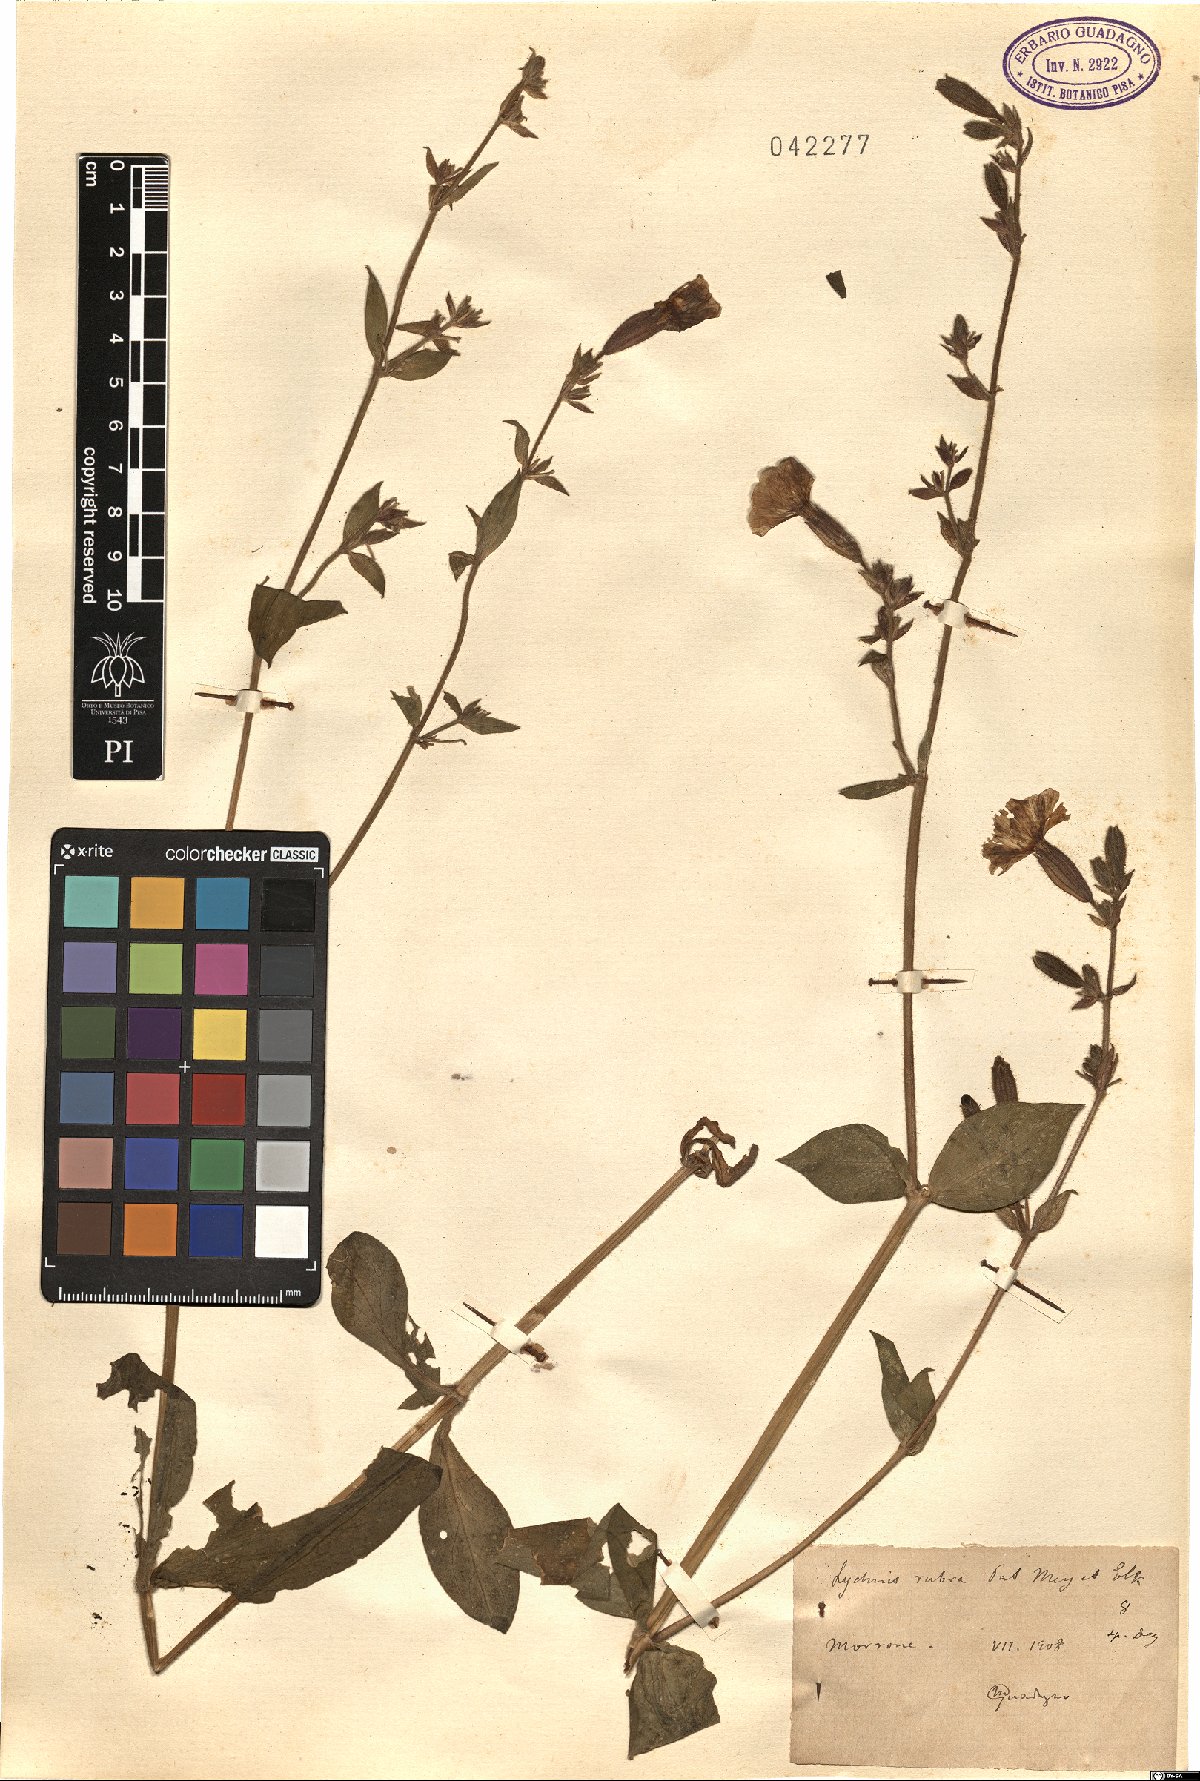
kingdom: Plantae
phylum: Tracheophyta
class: Magnoliopsida
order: Caryophyllales
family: Caryophyllaceae
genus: Silene
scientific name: Silene dioica
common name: Red campion
